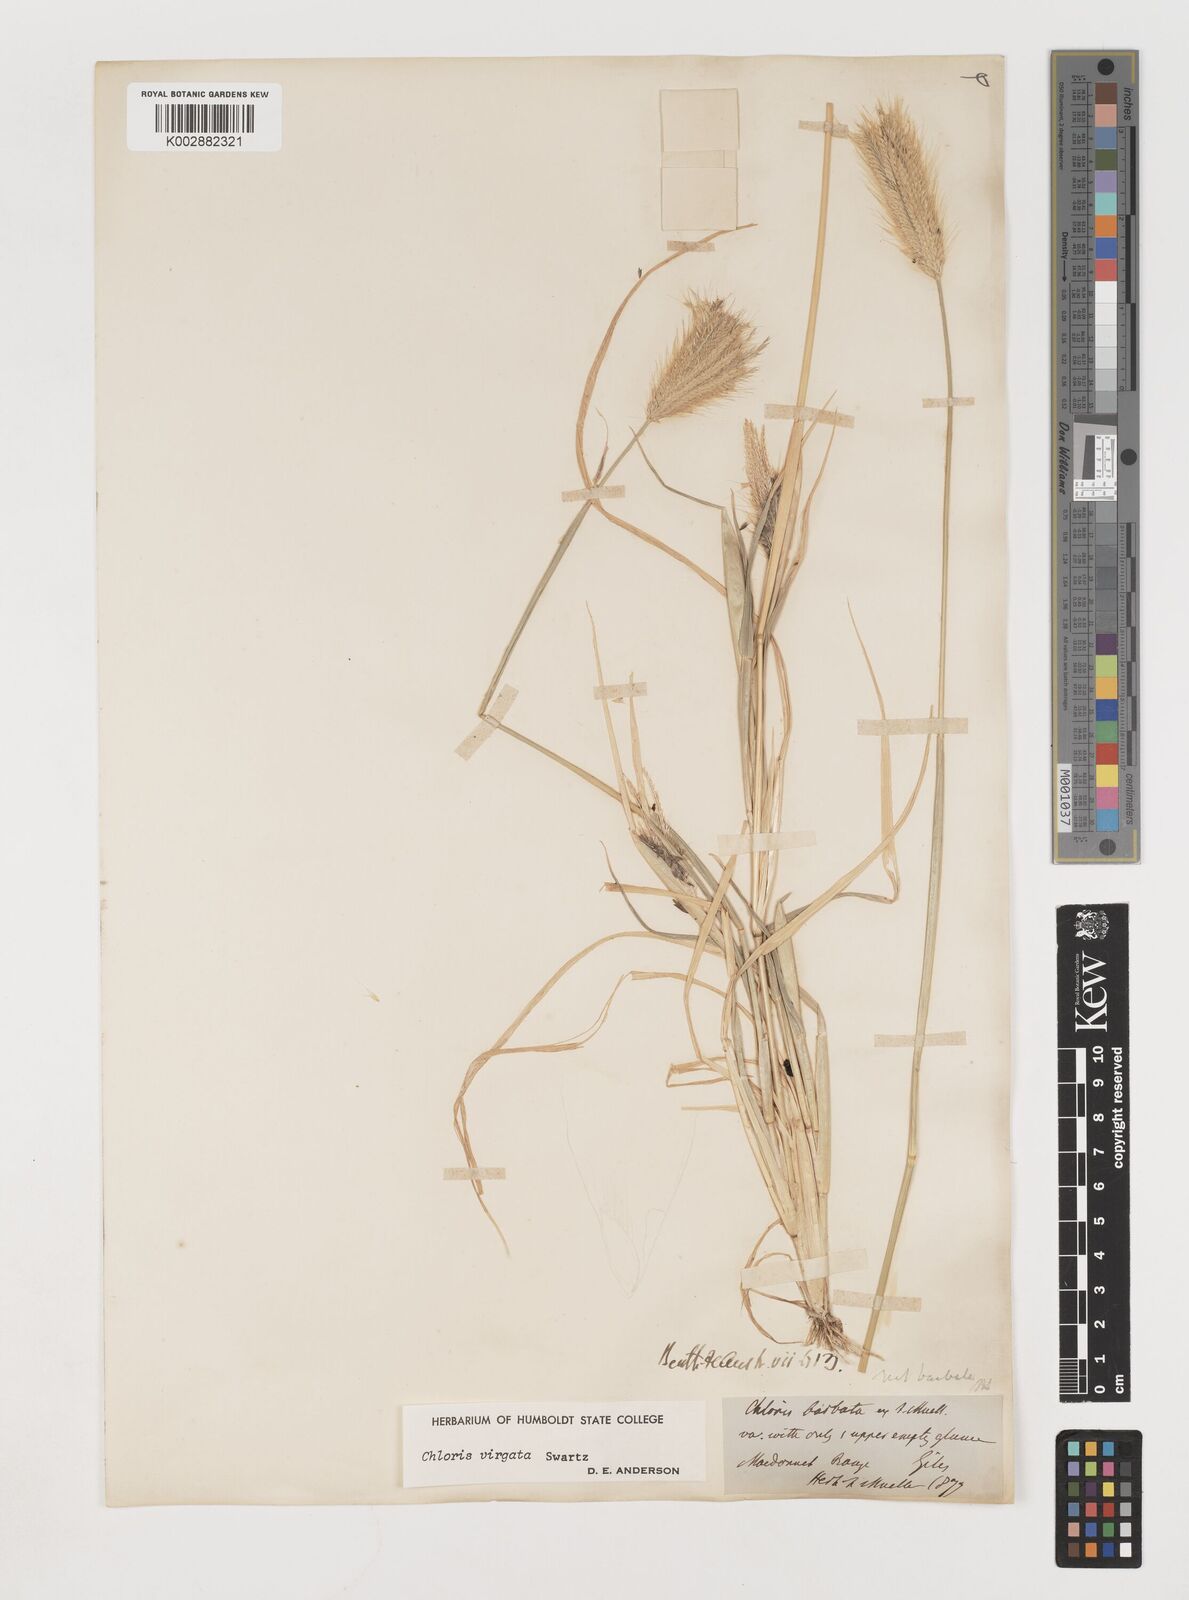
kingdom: Plantae
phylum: Tracheophyta
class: Liliopsida
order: Poales
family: Poaceae
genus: Chloris
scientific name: Chloris virgata
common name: Feathery rhodes-grass
